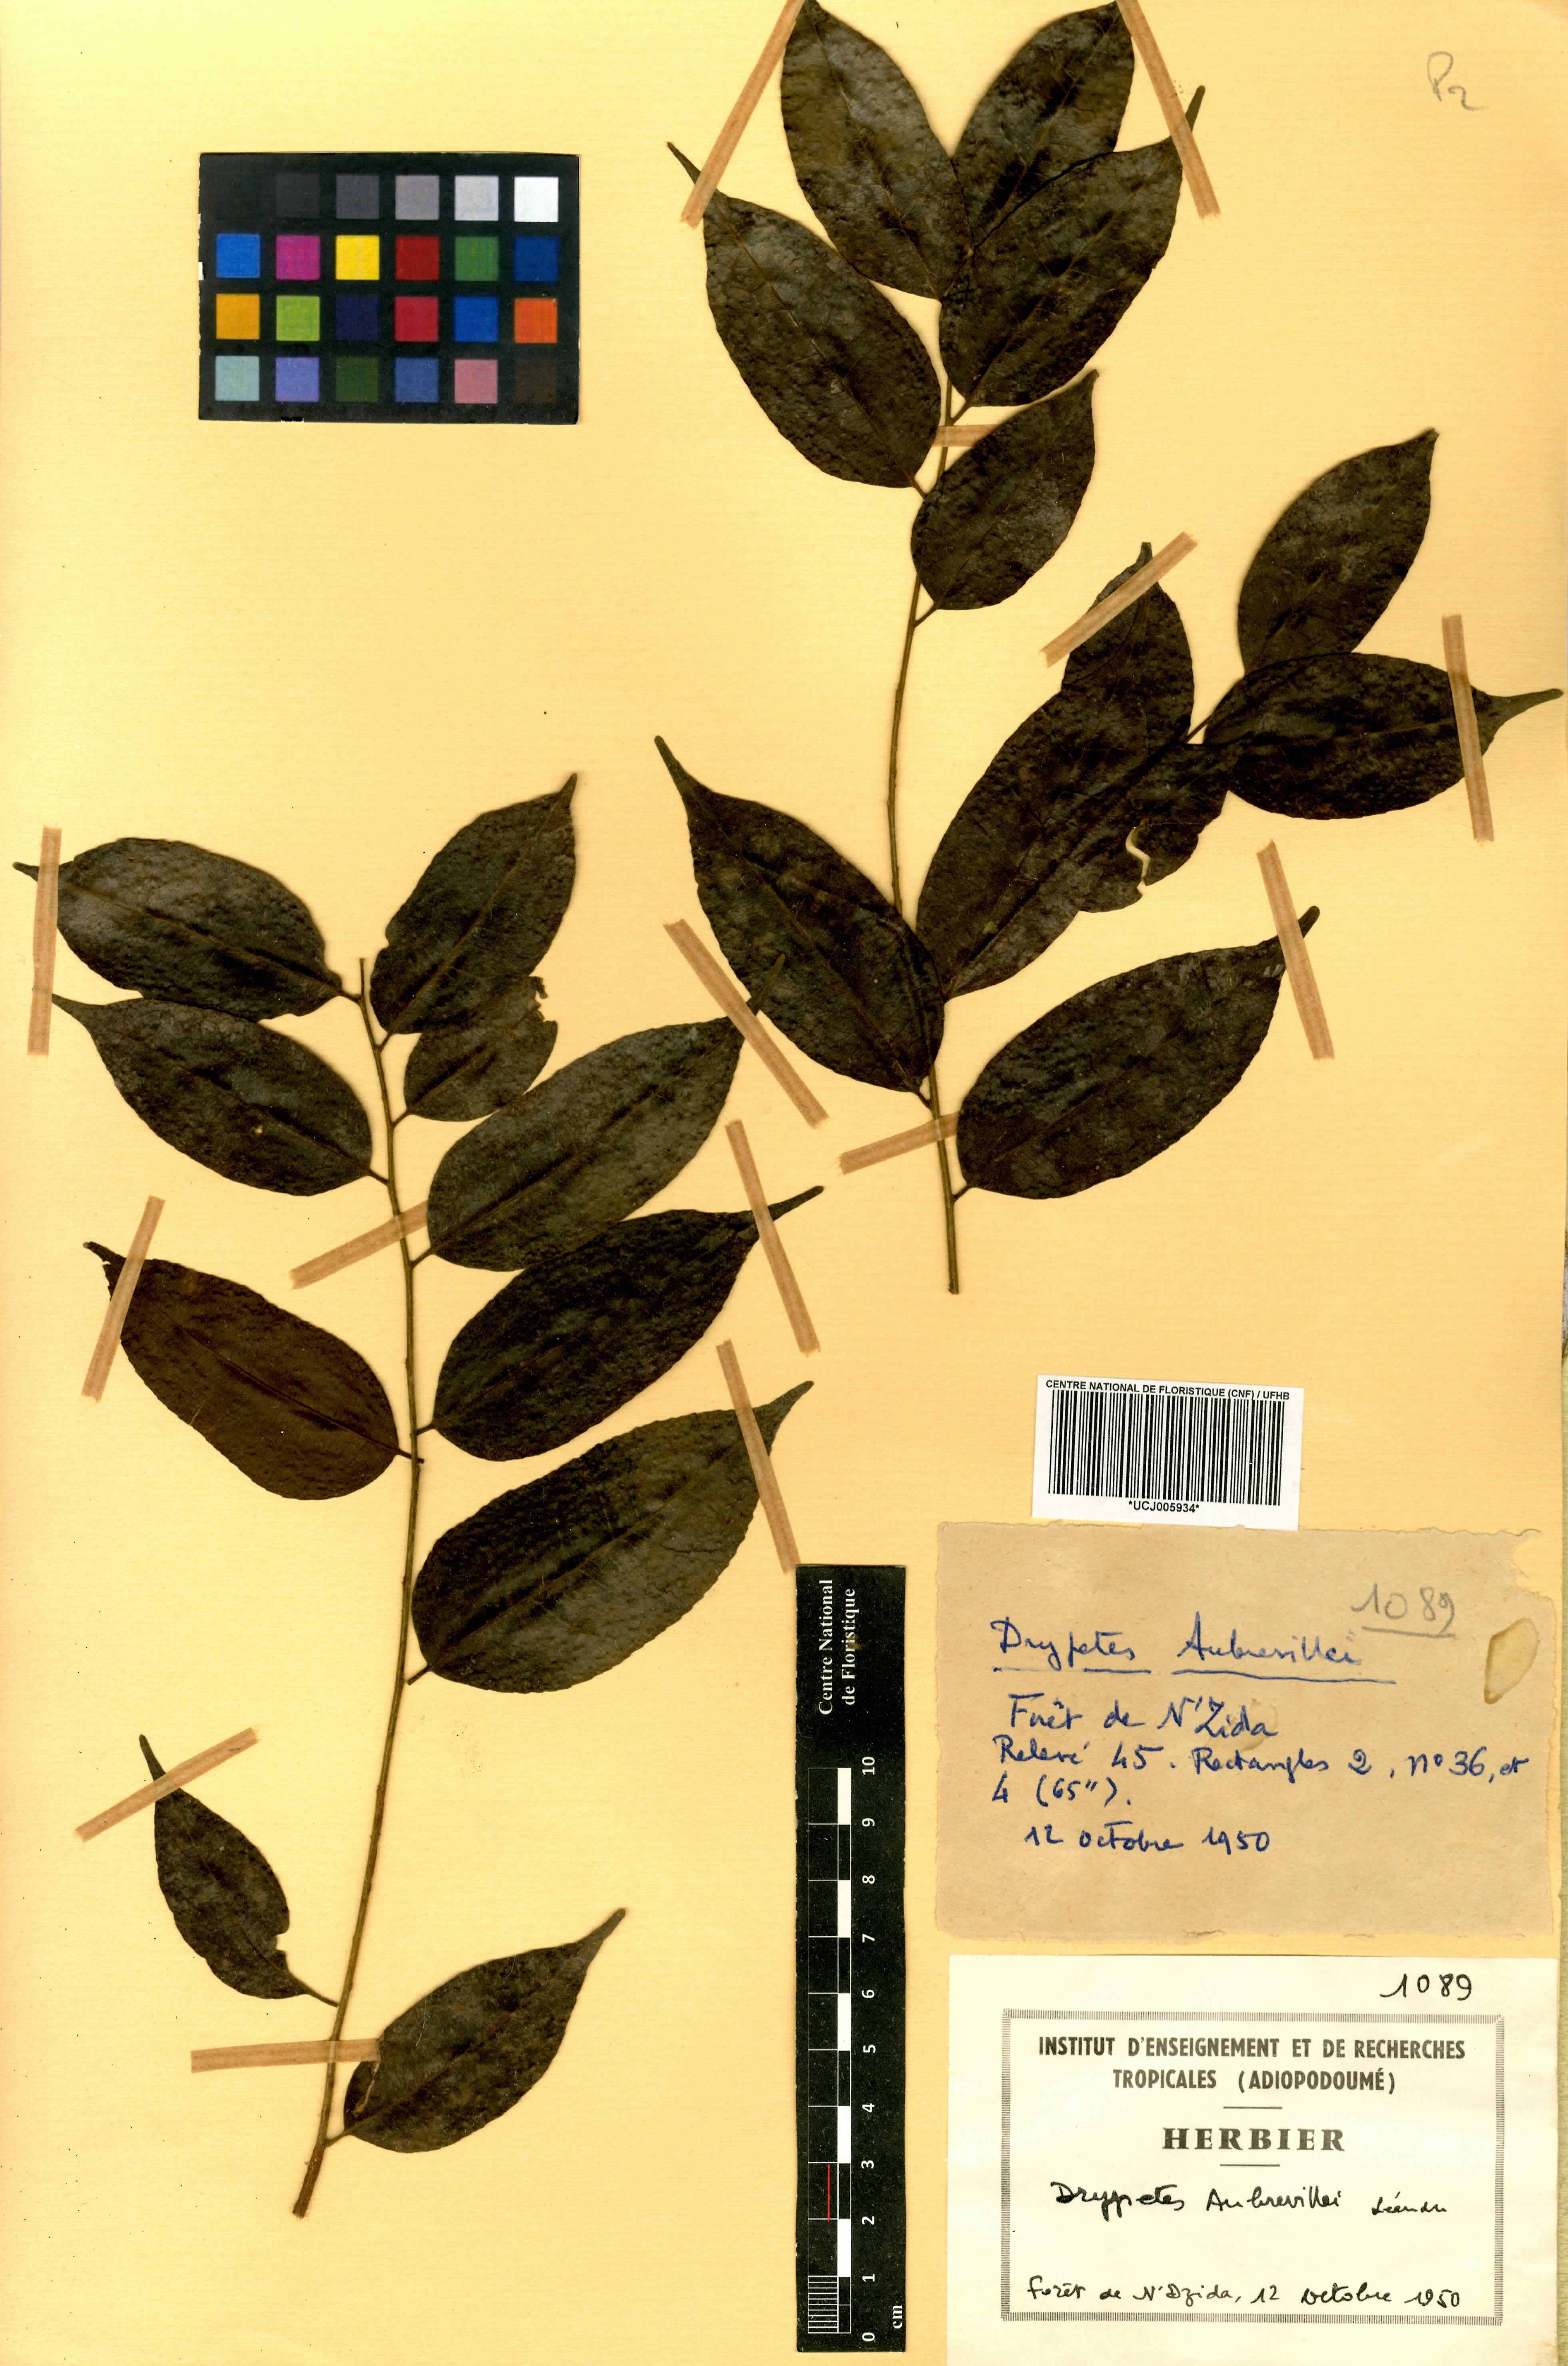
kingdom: Plantae
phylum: Tracheophyta
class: Magnoliopsida
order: Malpighiales
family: Euphorbiaceae
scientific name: Euphorbiaceae
